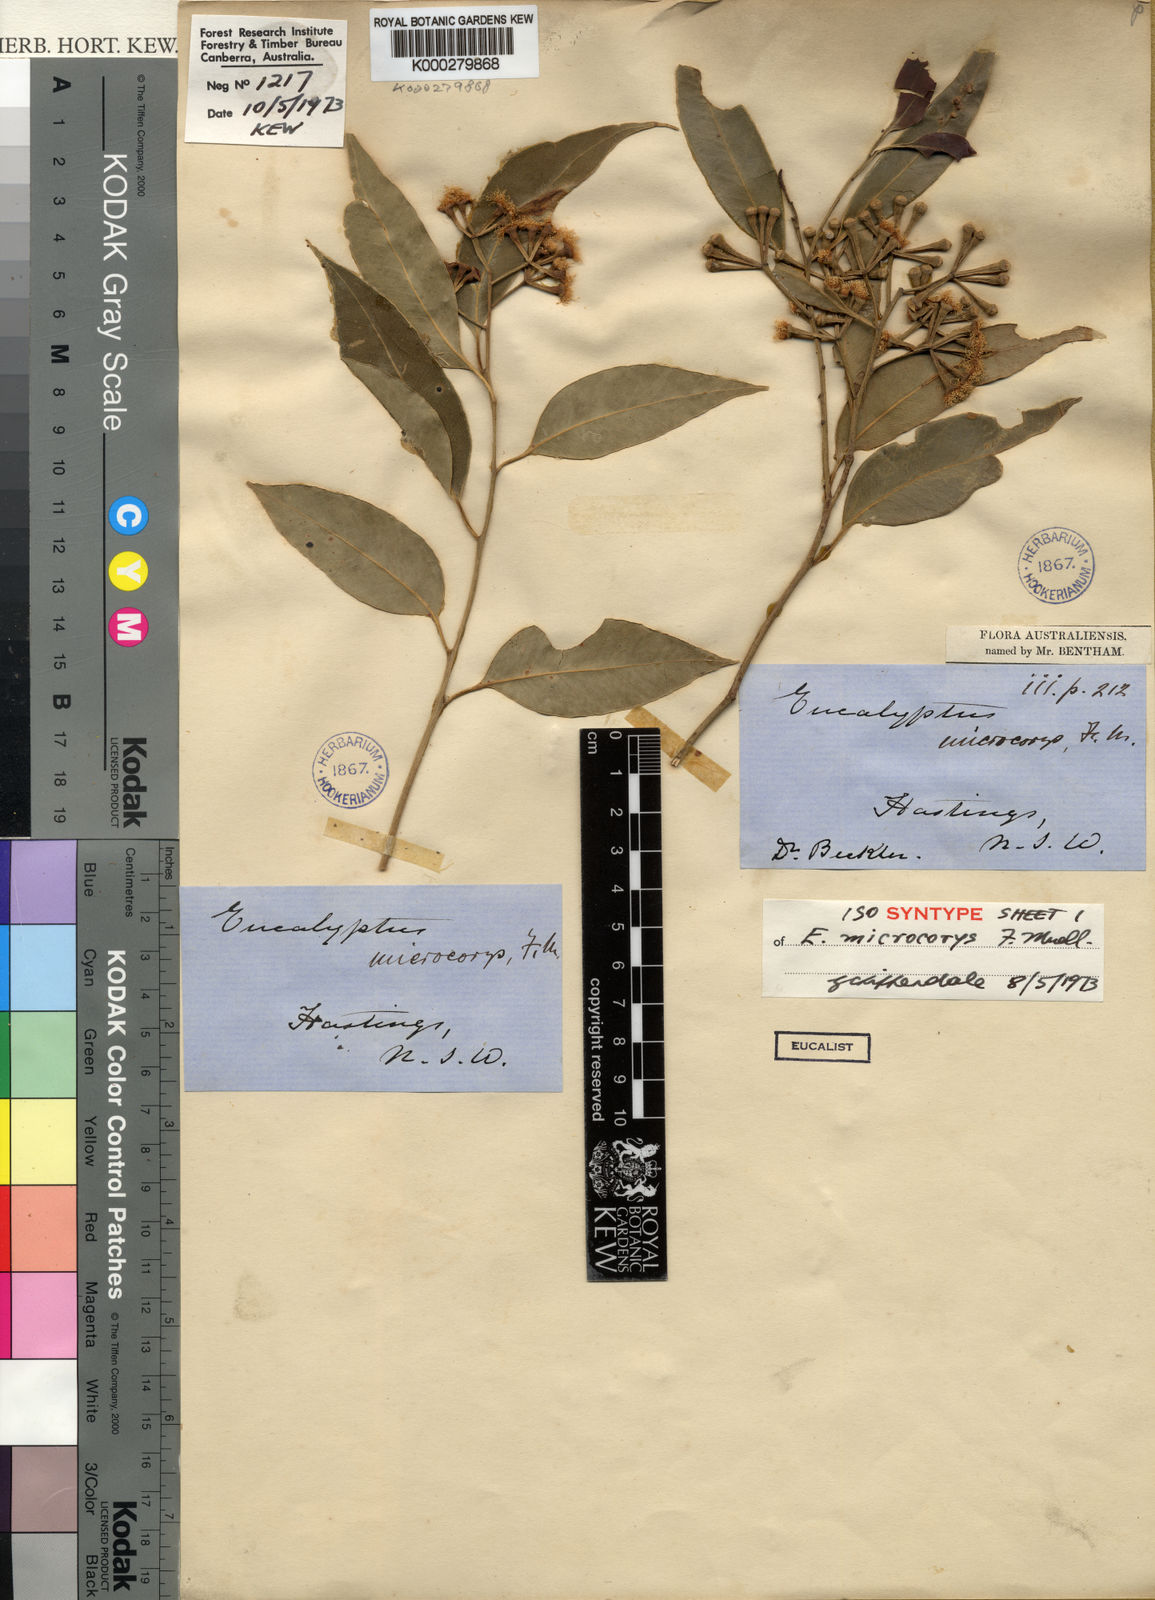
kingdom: Plantae
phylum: Tracheophyta
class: Magnoliopsida
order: Myrtales
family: Myrtaceae
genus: Eucalyptus
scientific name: Eucalyptus microcorys
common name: Tallowwood
